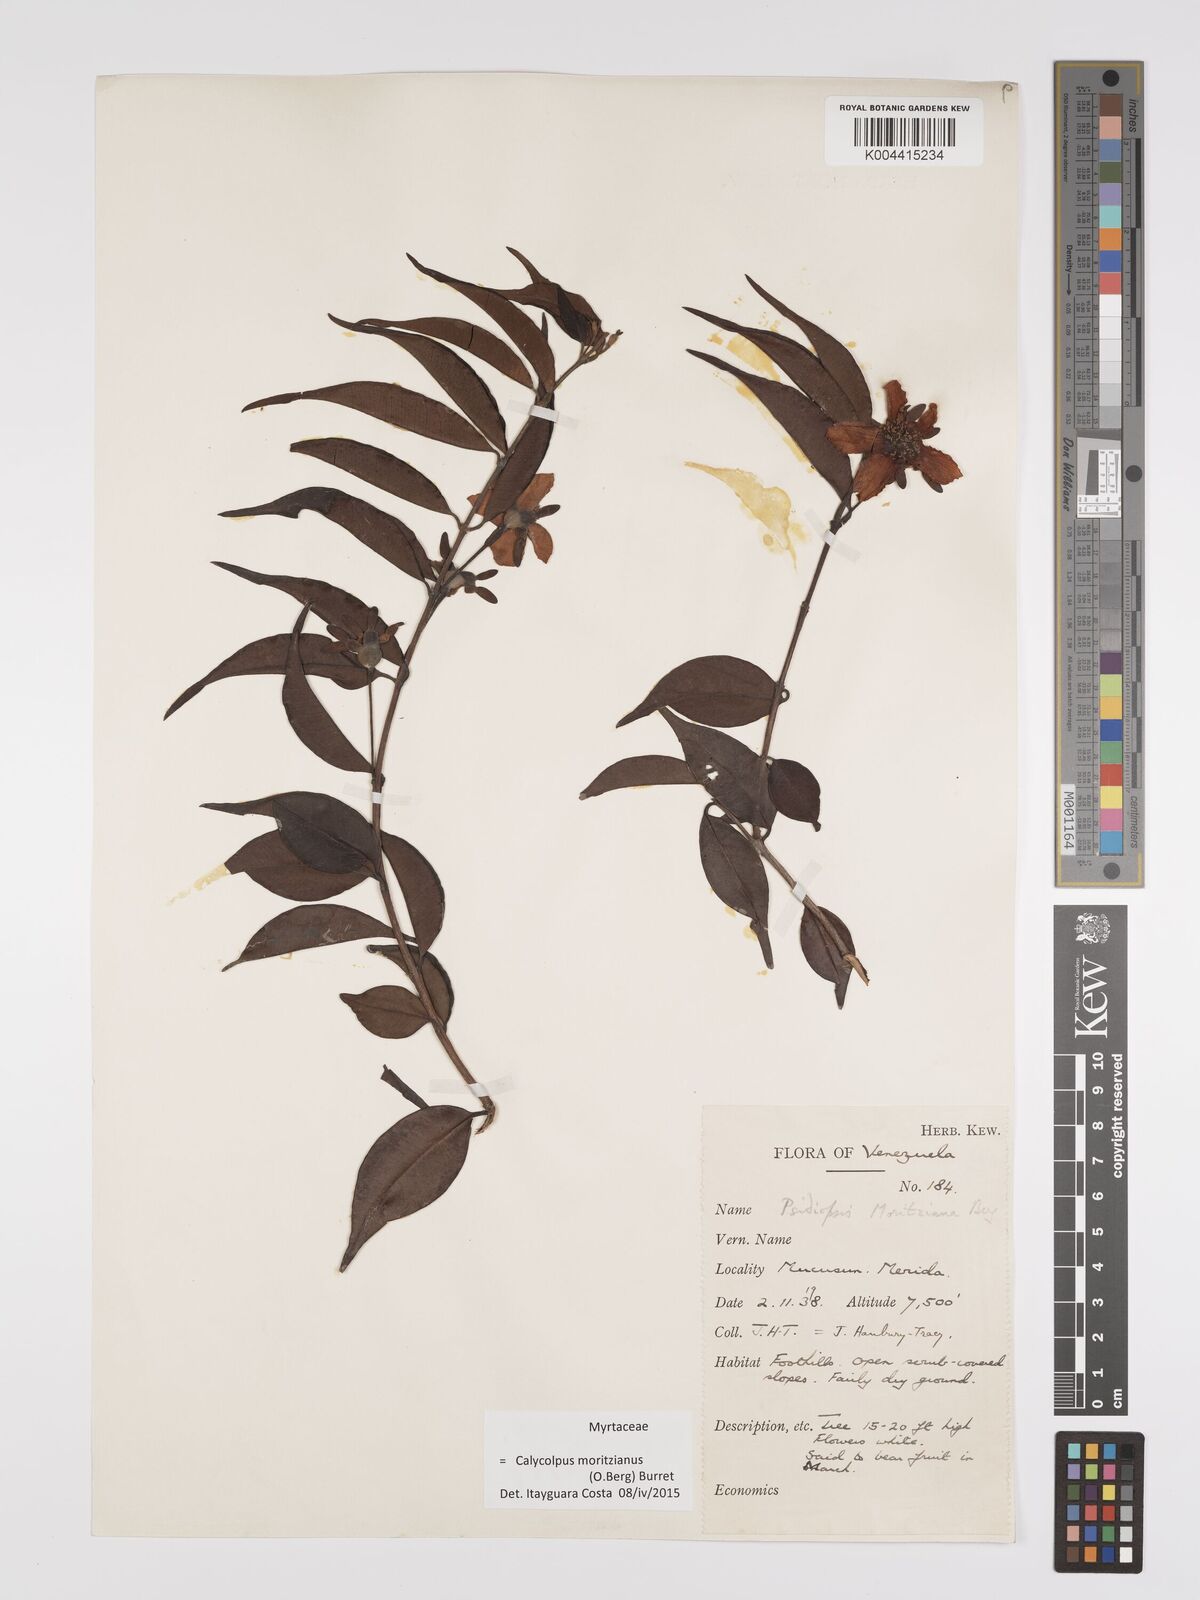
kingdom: Plantae
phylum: Tracheophyta
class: Magnoliopsida
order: Myrtales
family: Myrtaceae
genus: Calycolpus
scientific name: Calycolpus moritzianus
